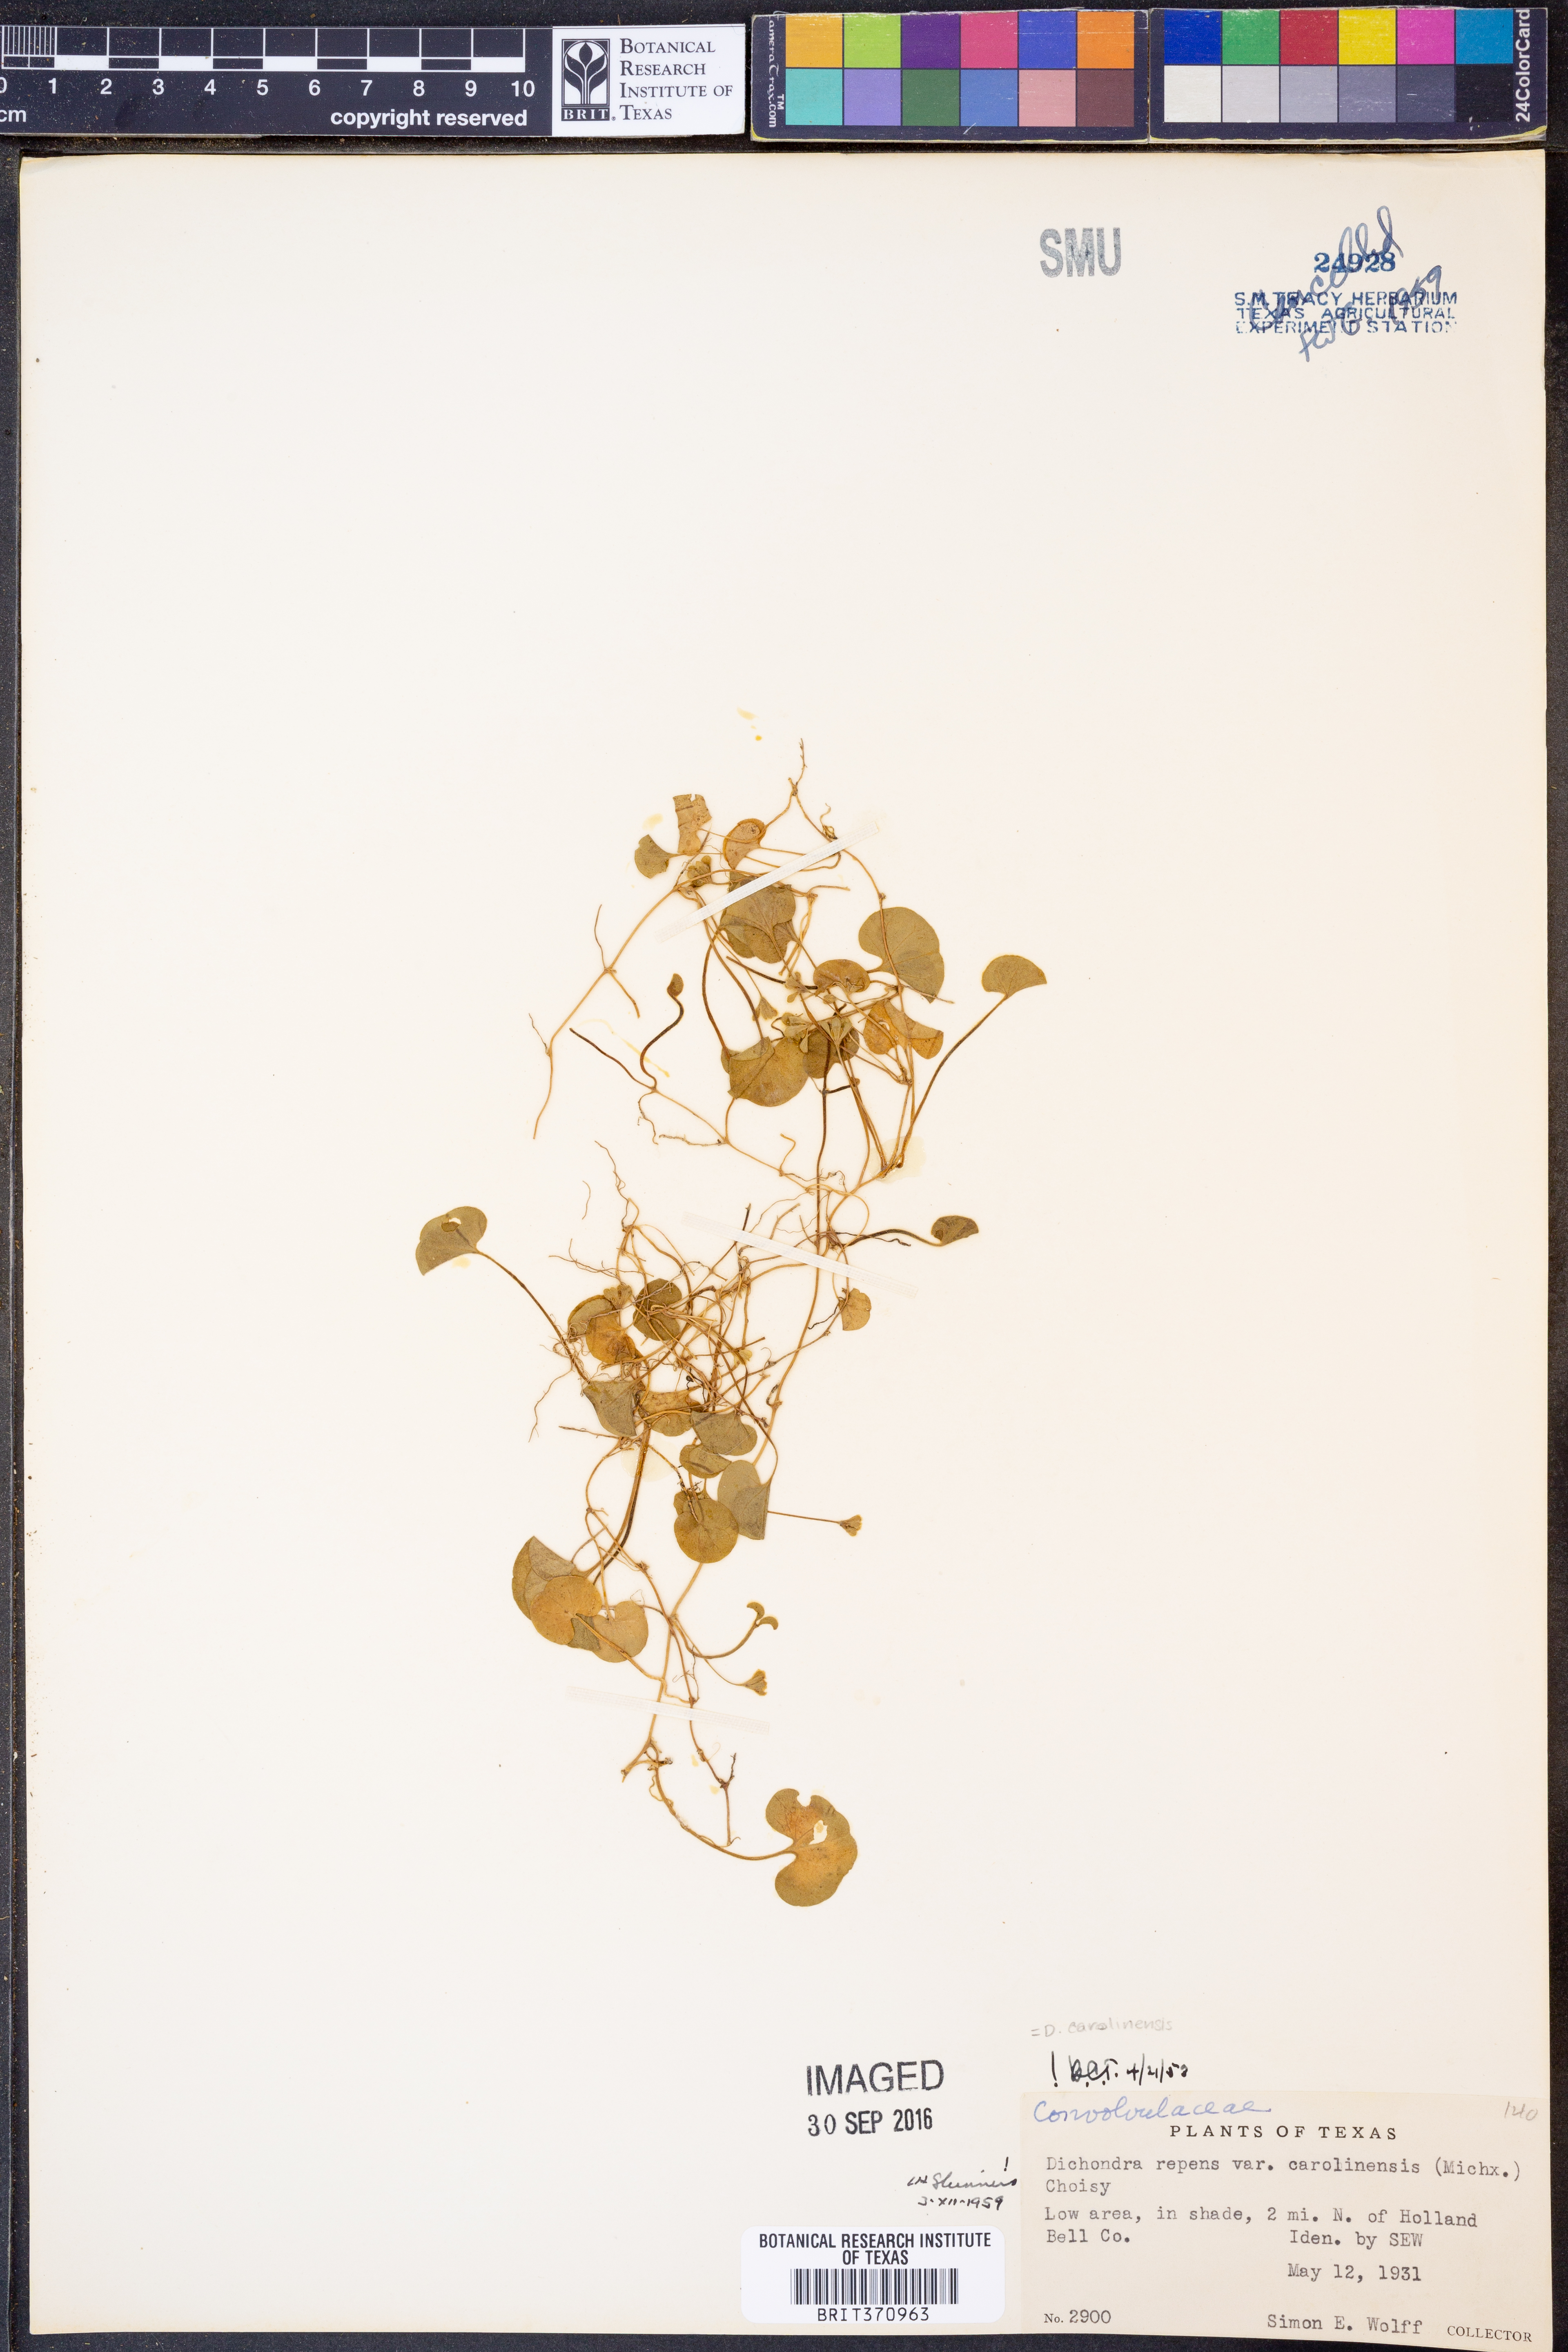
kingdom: Plantae
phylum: Tracheophyta
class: Magnoliopsida
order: Solanales
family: Convolvulaceae
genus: Dichondra
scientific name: Dichondra carolinensis
